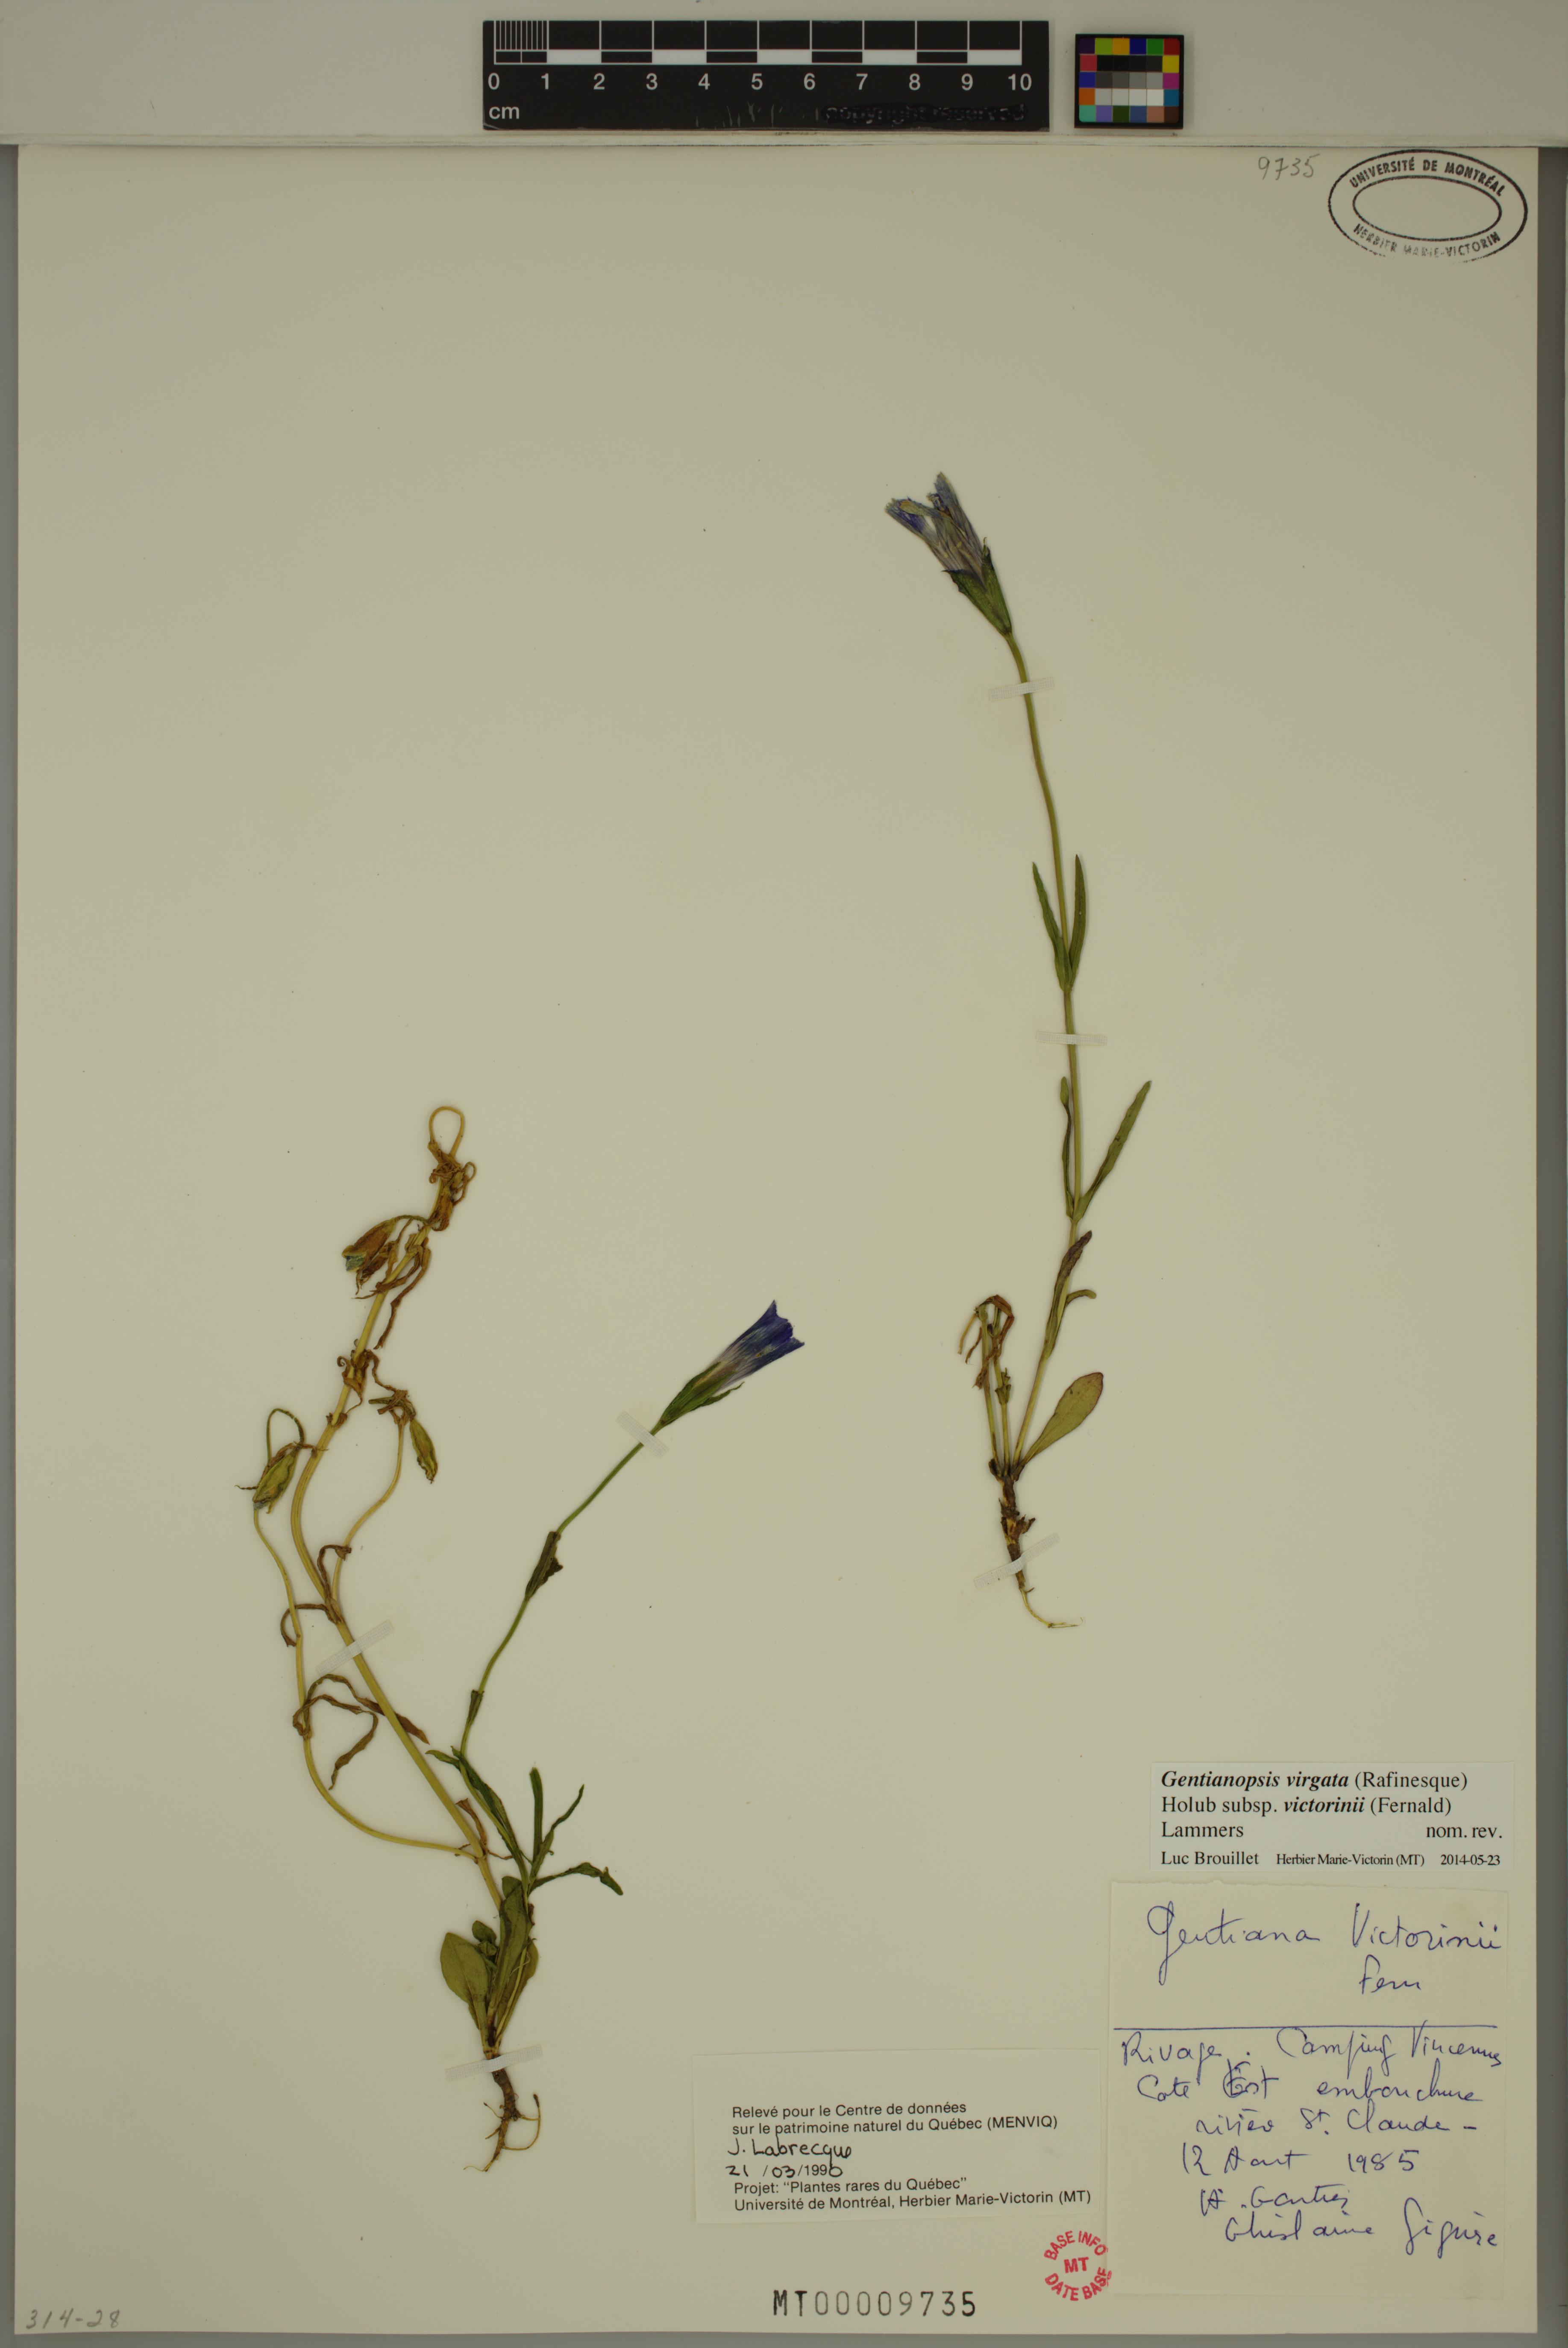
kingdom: Plantae
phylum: Tracheophyta
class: Magnoliopsida
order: Gentianales
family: Gentianaceae
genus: Gentianopsis
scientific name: Gentianopsis victorinii
